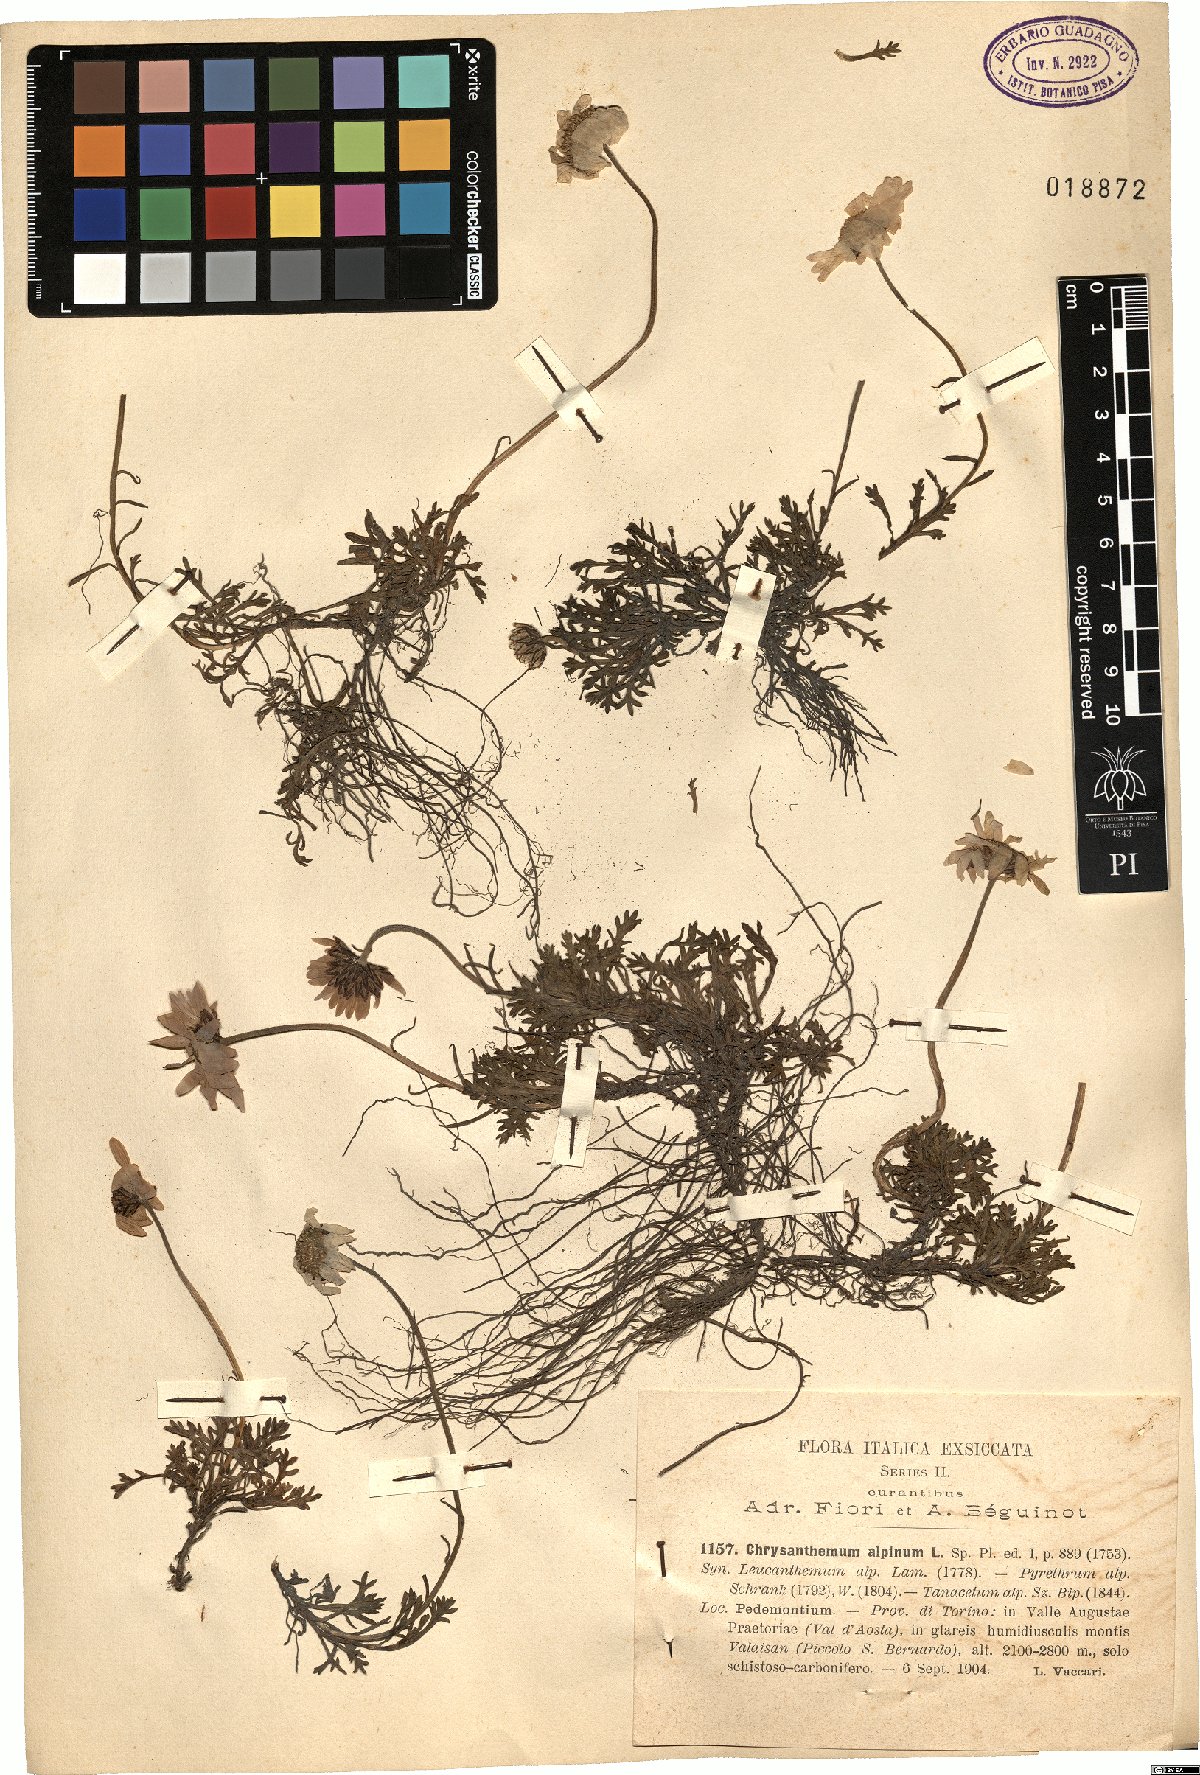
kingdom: Plantae
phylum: Tracheophyta
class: Magnoliopsida
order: Asterales
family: Asteraceae
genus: Leucanthemopsis
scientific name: Leucanthemopsis alpina
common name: Alpine moon daisy
